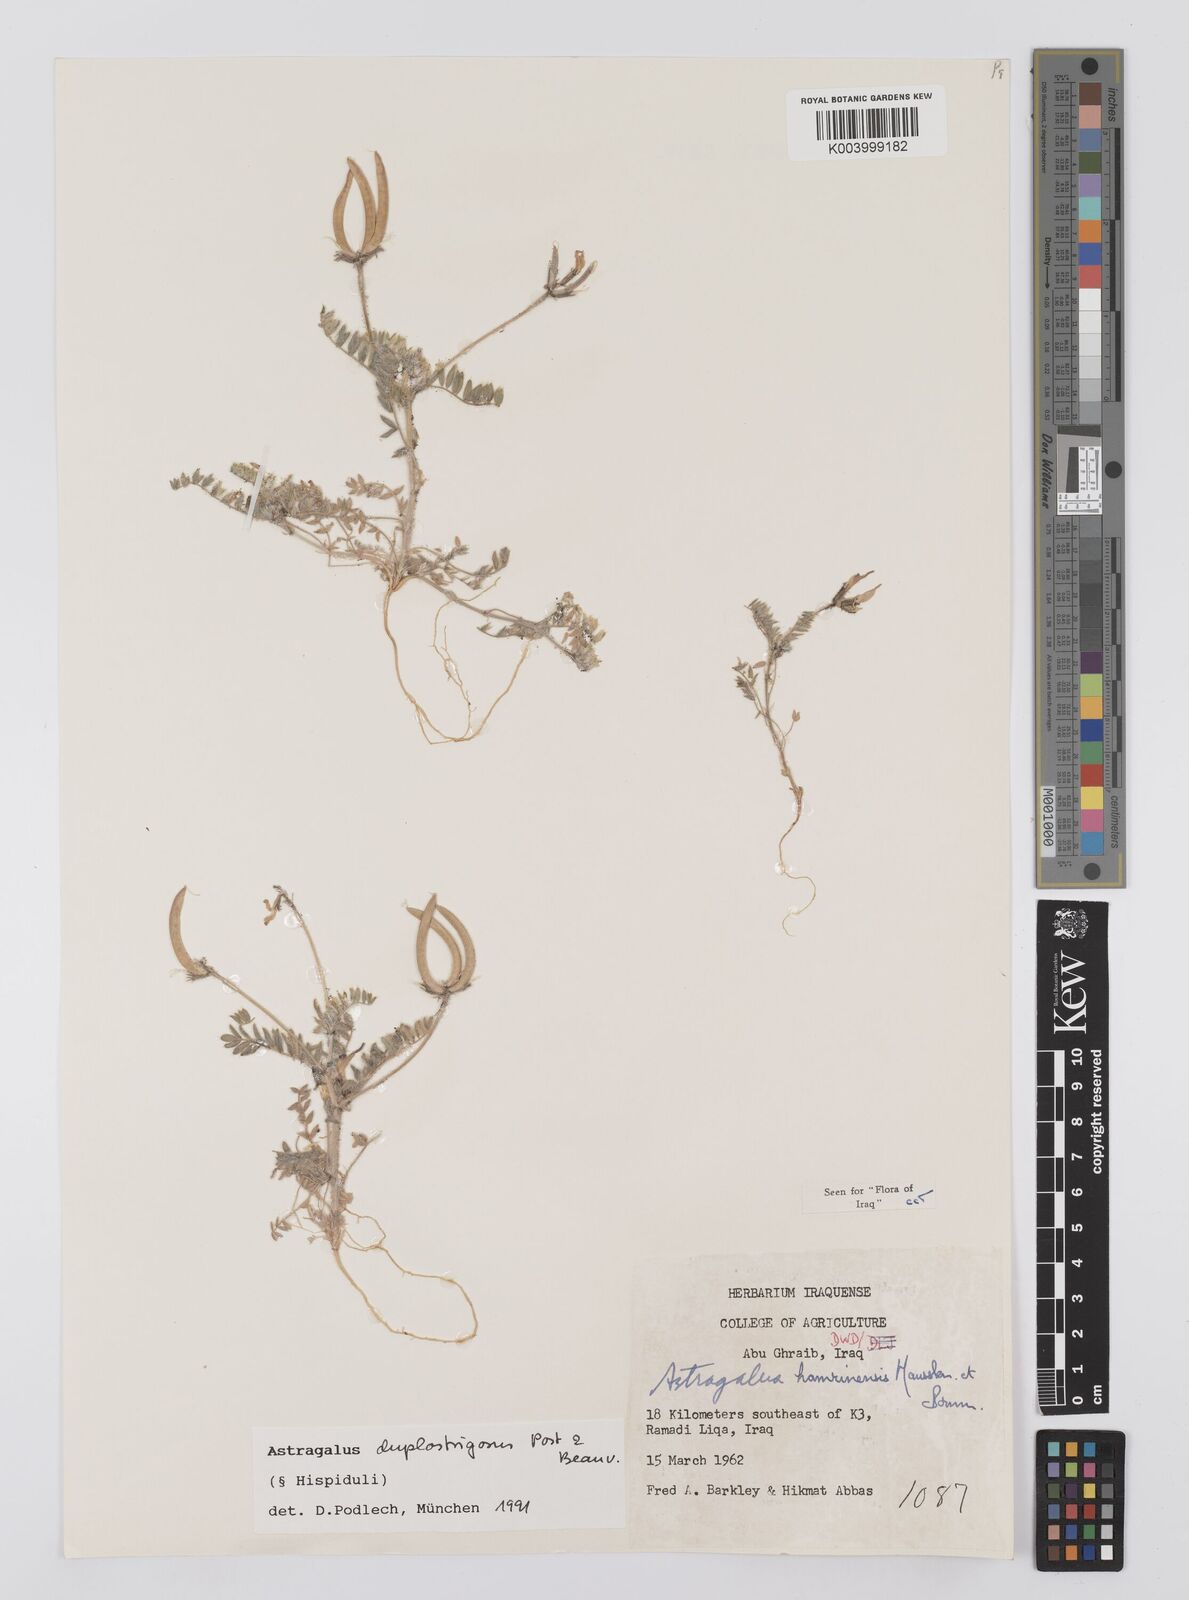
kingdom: Plantae
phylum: Tracheophyta
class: Magnoliopsida
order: Fabales
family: Fabaceae
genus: Astragalus
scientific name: Astragalus duplostrigosus
